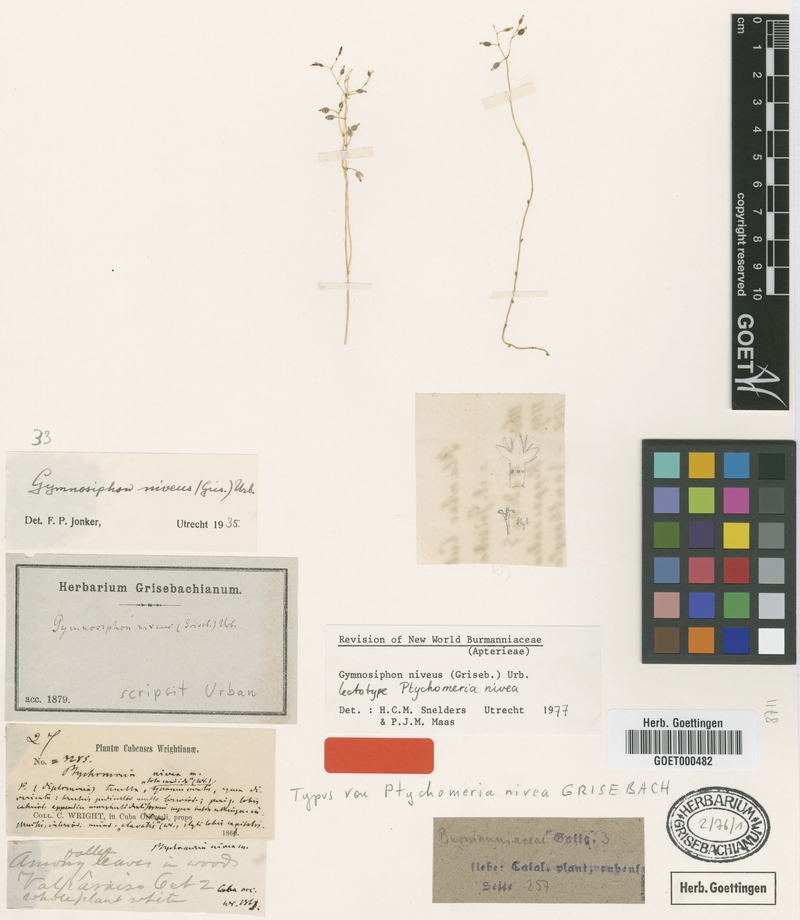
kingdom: Plantae
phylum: Tracheophyta
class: Liliopsida
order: Dioscoreales
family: Burmanniaceae
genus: Gymnosiphon
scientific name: Gymnosiphon niveus
